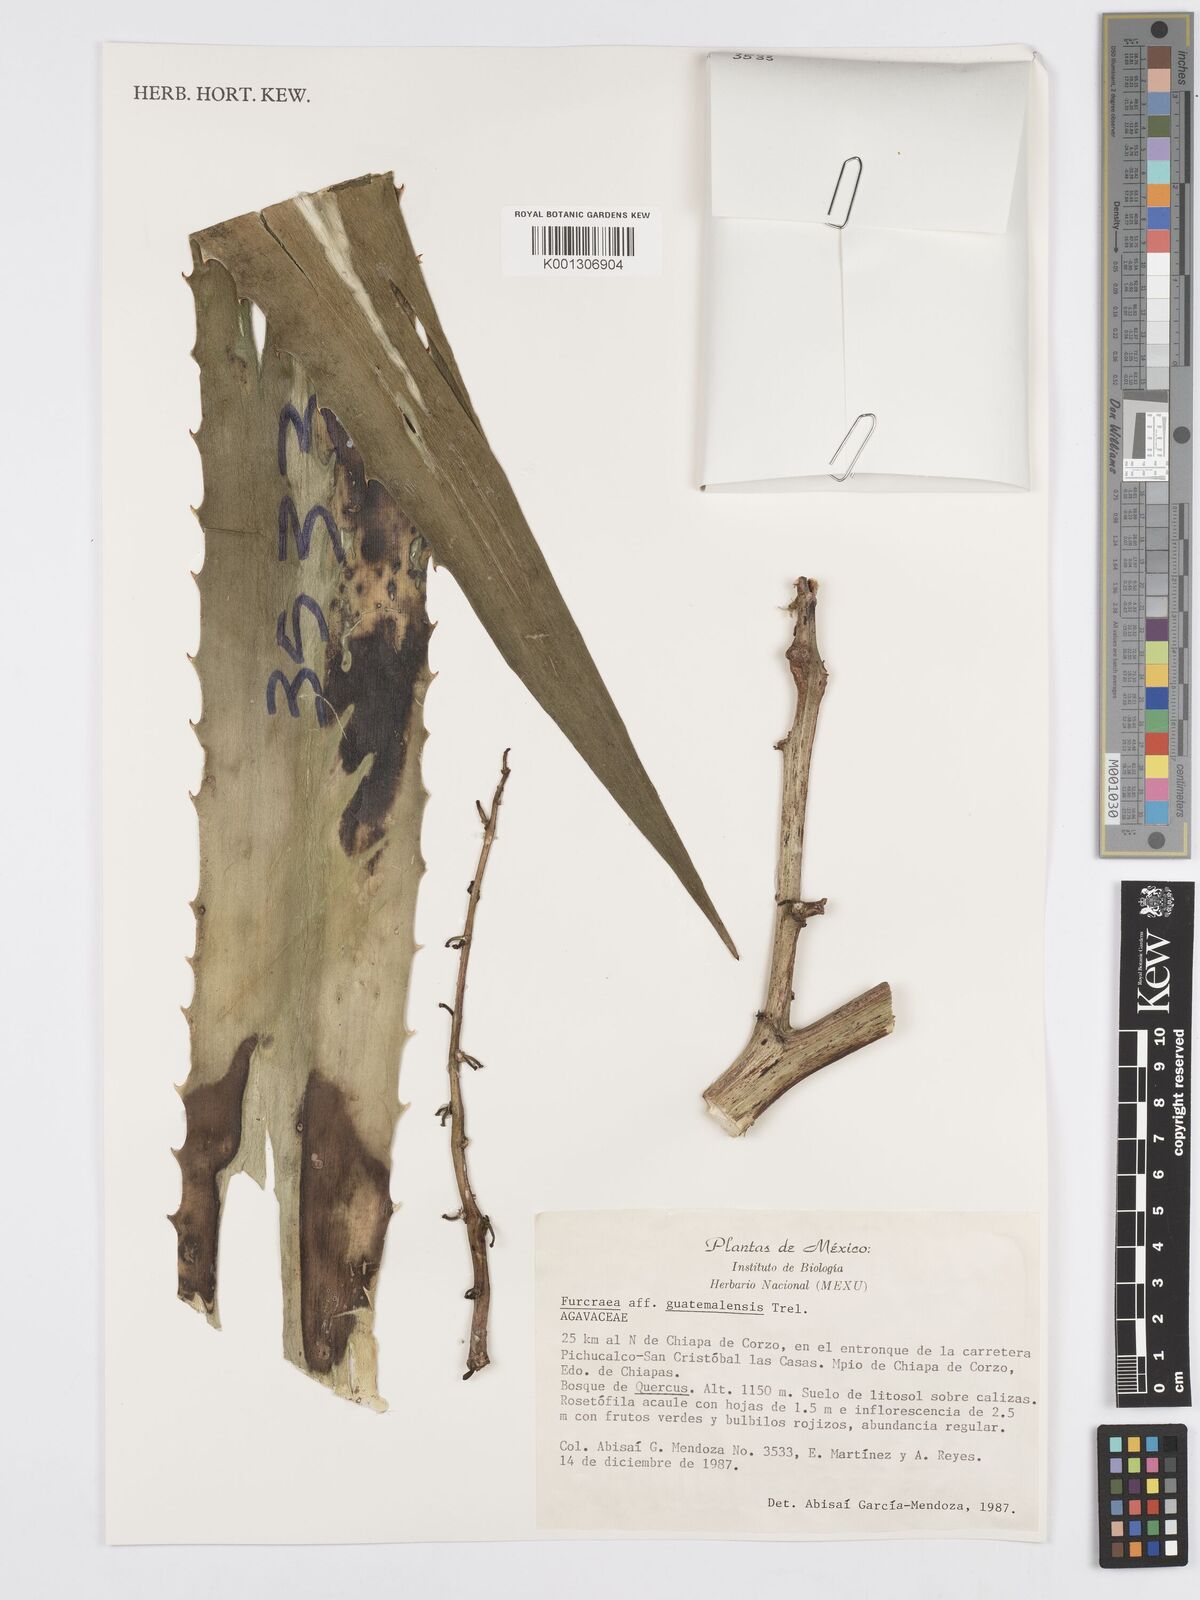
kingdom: Plantae
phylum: Tracheophyta
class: Liliopsida
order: Asparagales
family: Asparagaceae
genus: Furcraea
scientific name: Furcraea guatemalensis
